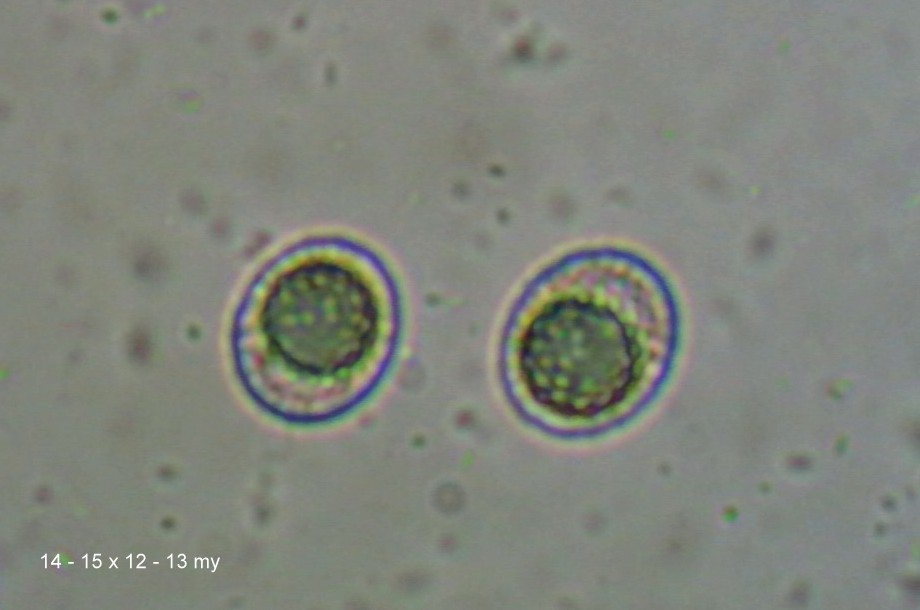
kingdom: Fungi
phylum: Ascomycota
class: Pezizomycetes
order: Pezizales
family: Pyronemataceae
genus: Octospora
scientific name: Octospora affinis
